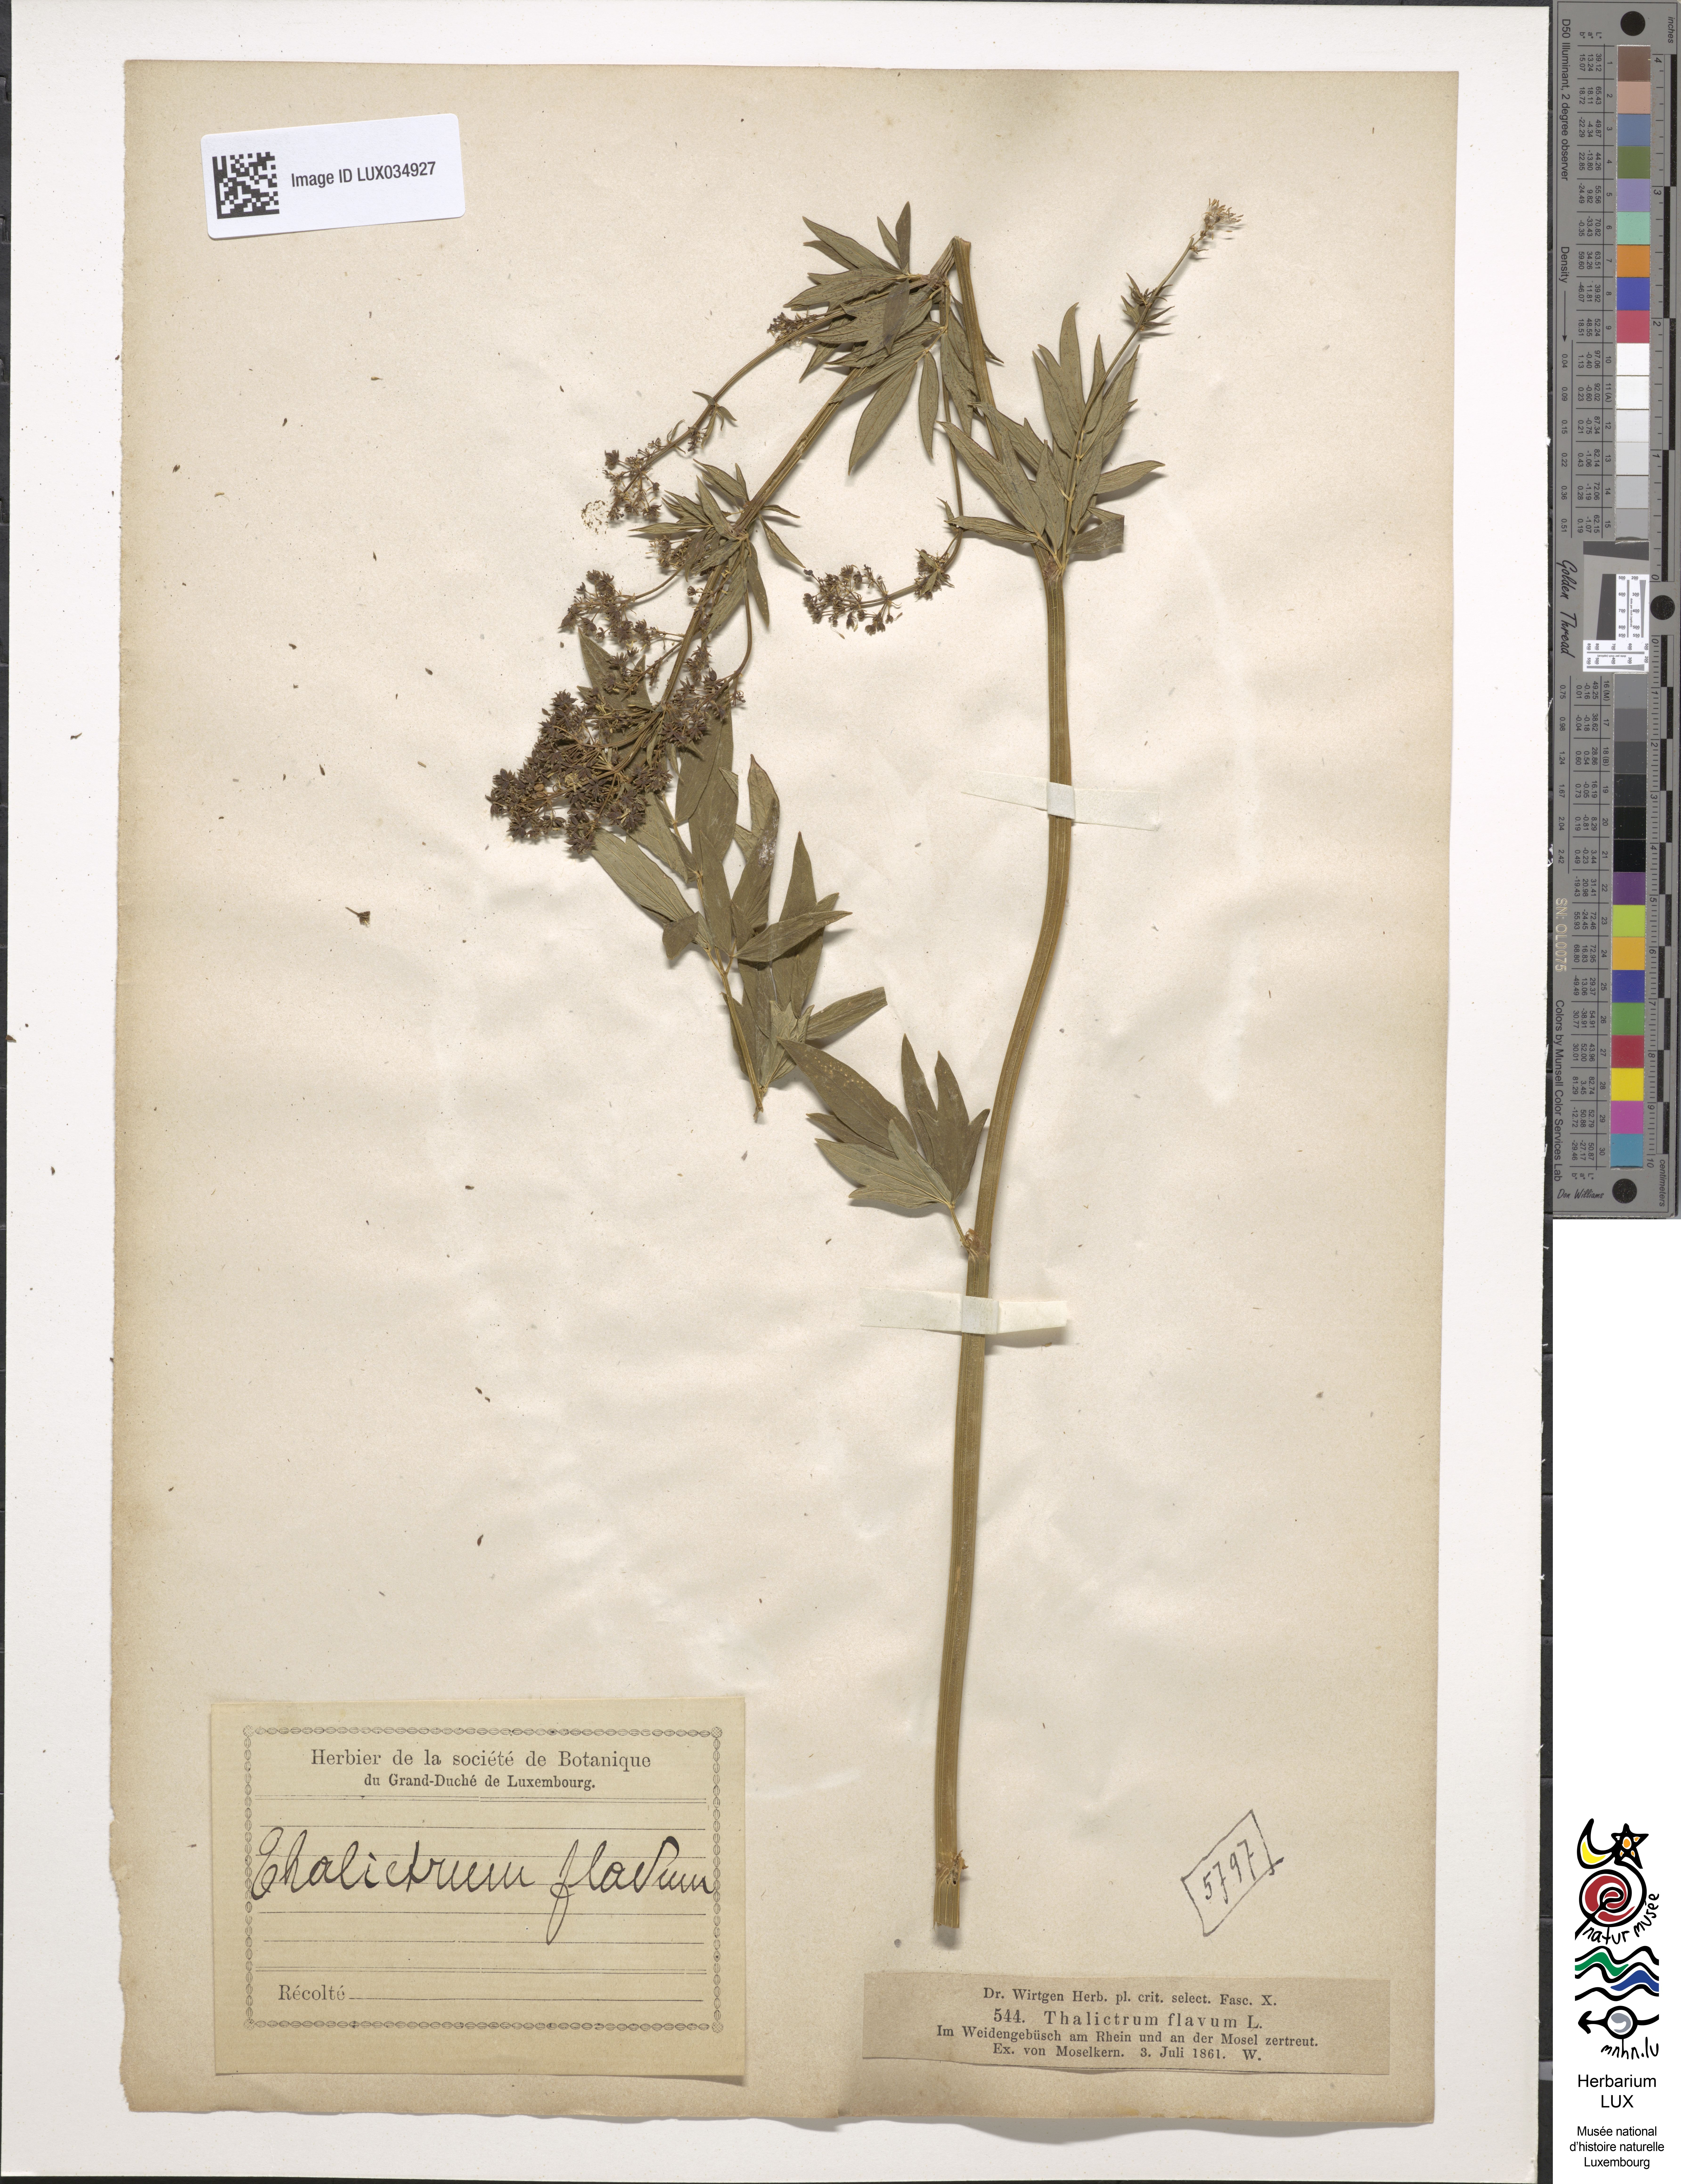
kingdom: Plantae
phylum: Tracheophyta
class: Magnoliopsida
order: Ranunculales
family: Ranunculaceae
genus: Thalictrum
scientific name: Thalictrum flavum
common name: Common meadow-rue
